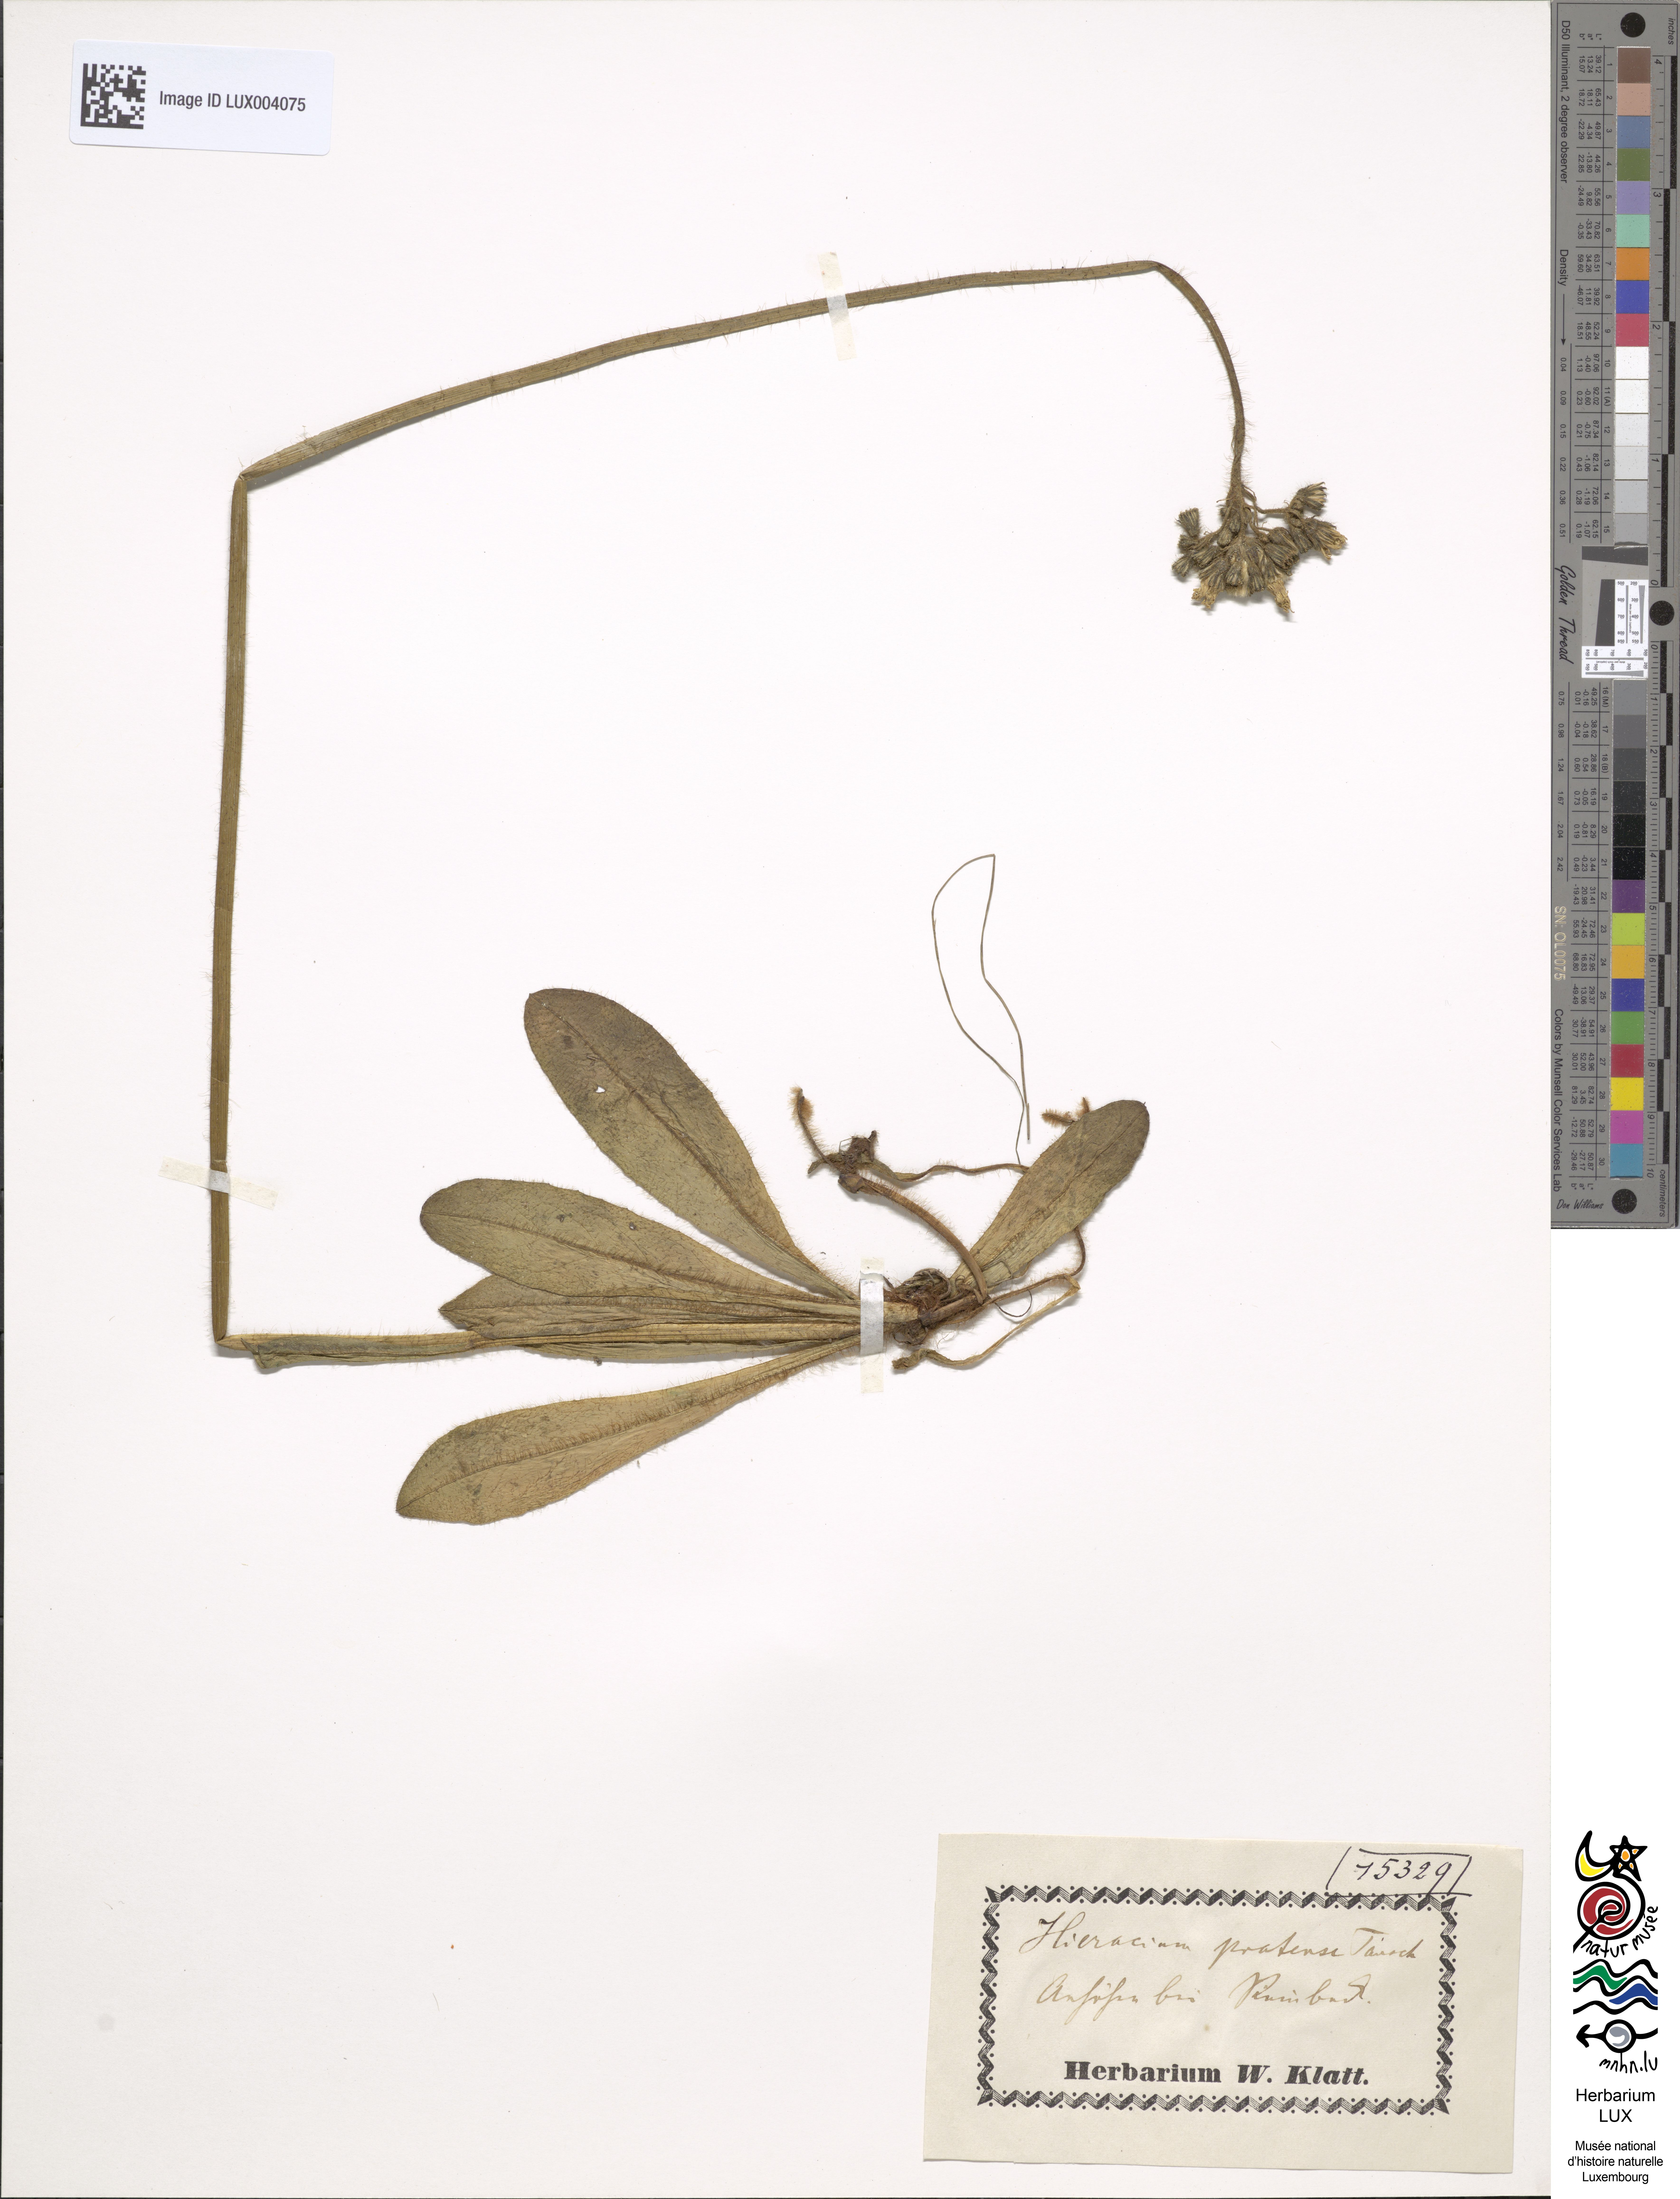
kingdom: Plantae
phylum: Tracheophyta
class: Magnoliopsida
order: Asterales
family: Asteraceae
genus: Pilosella
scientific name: Pilosella caespitosa
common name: Yellow fox-and-cubs
